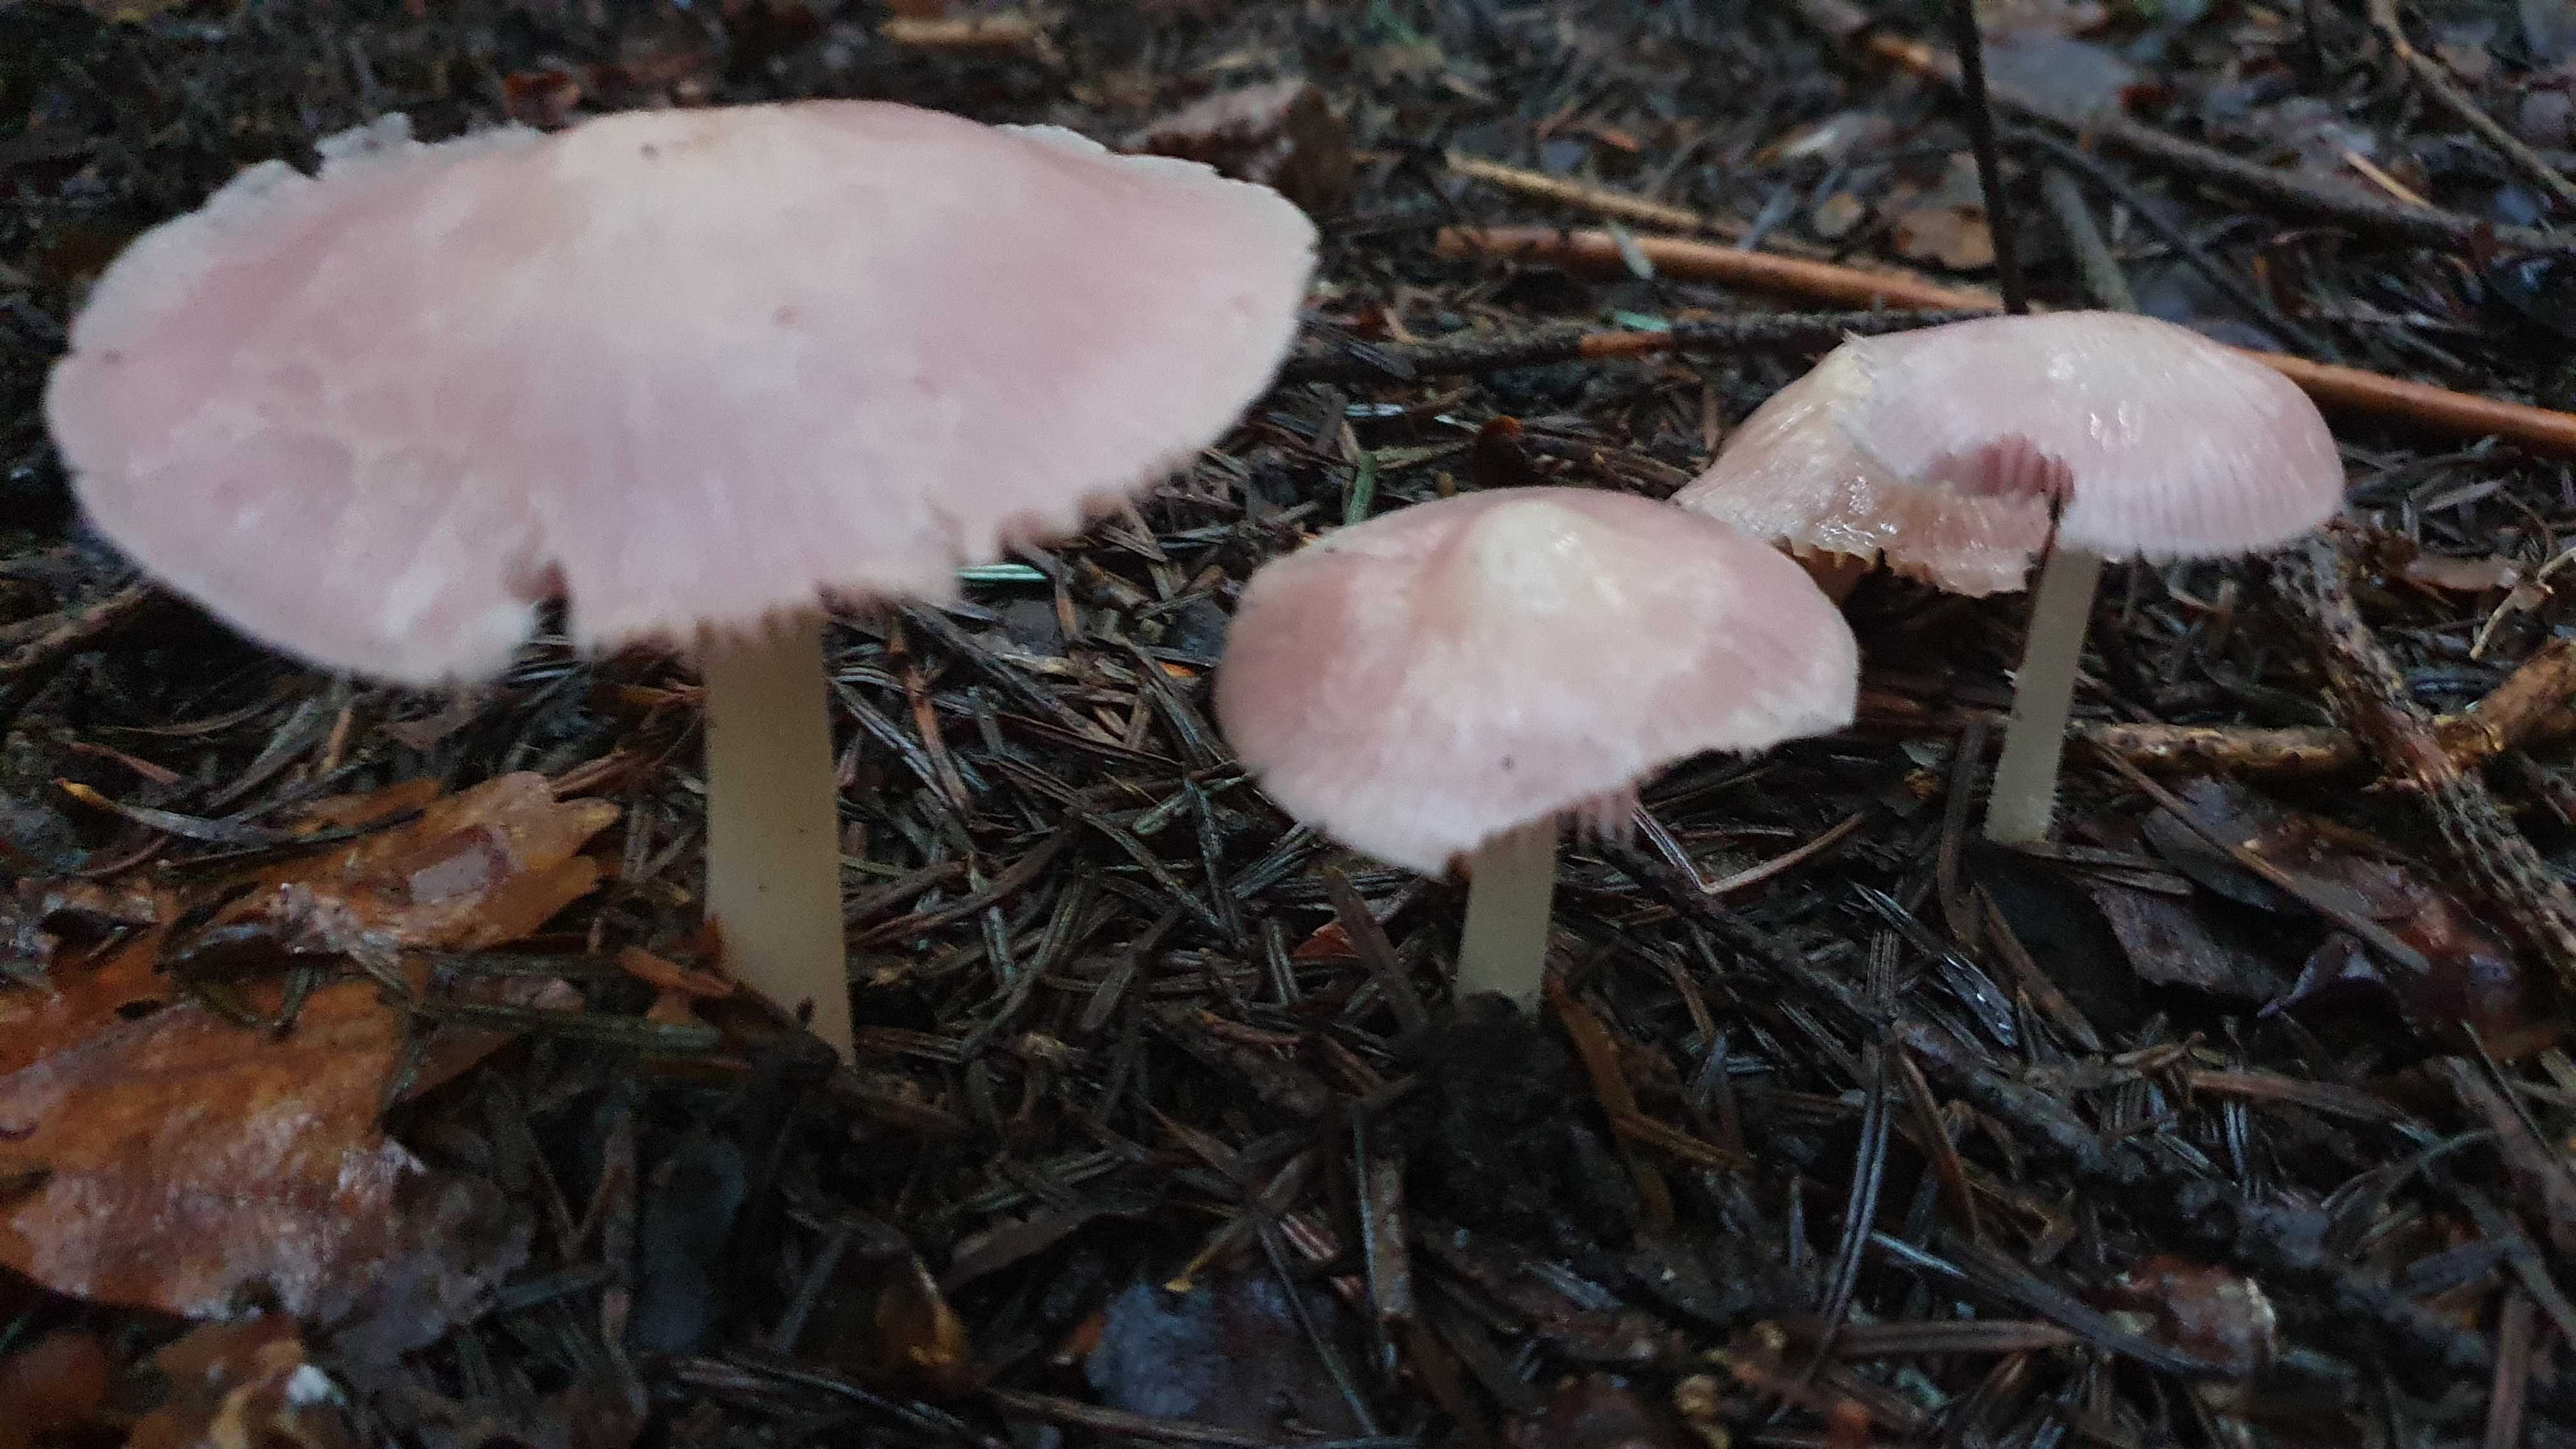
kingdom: Fungi
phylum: Basidiomycota
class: Agaricomycetes
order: Agaricales
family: Mycenaceae
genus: Mycena
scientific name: Mycena rosea
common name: rosa huesvamp
